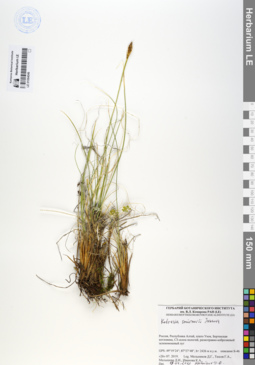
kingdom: Plantae
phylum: Tracheophyta
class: Liliopsida
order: Poales
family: Cyperaceae
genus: Carex
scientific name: Carex borealipolaris
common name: Siberian bog sedge
